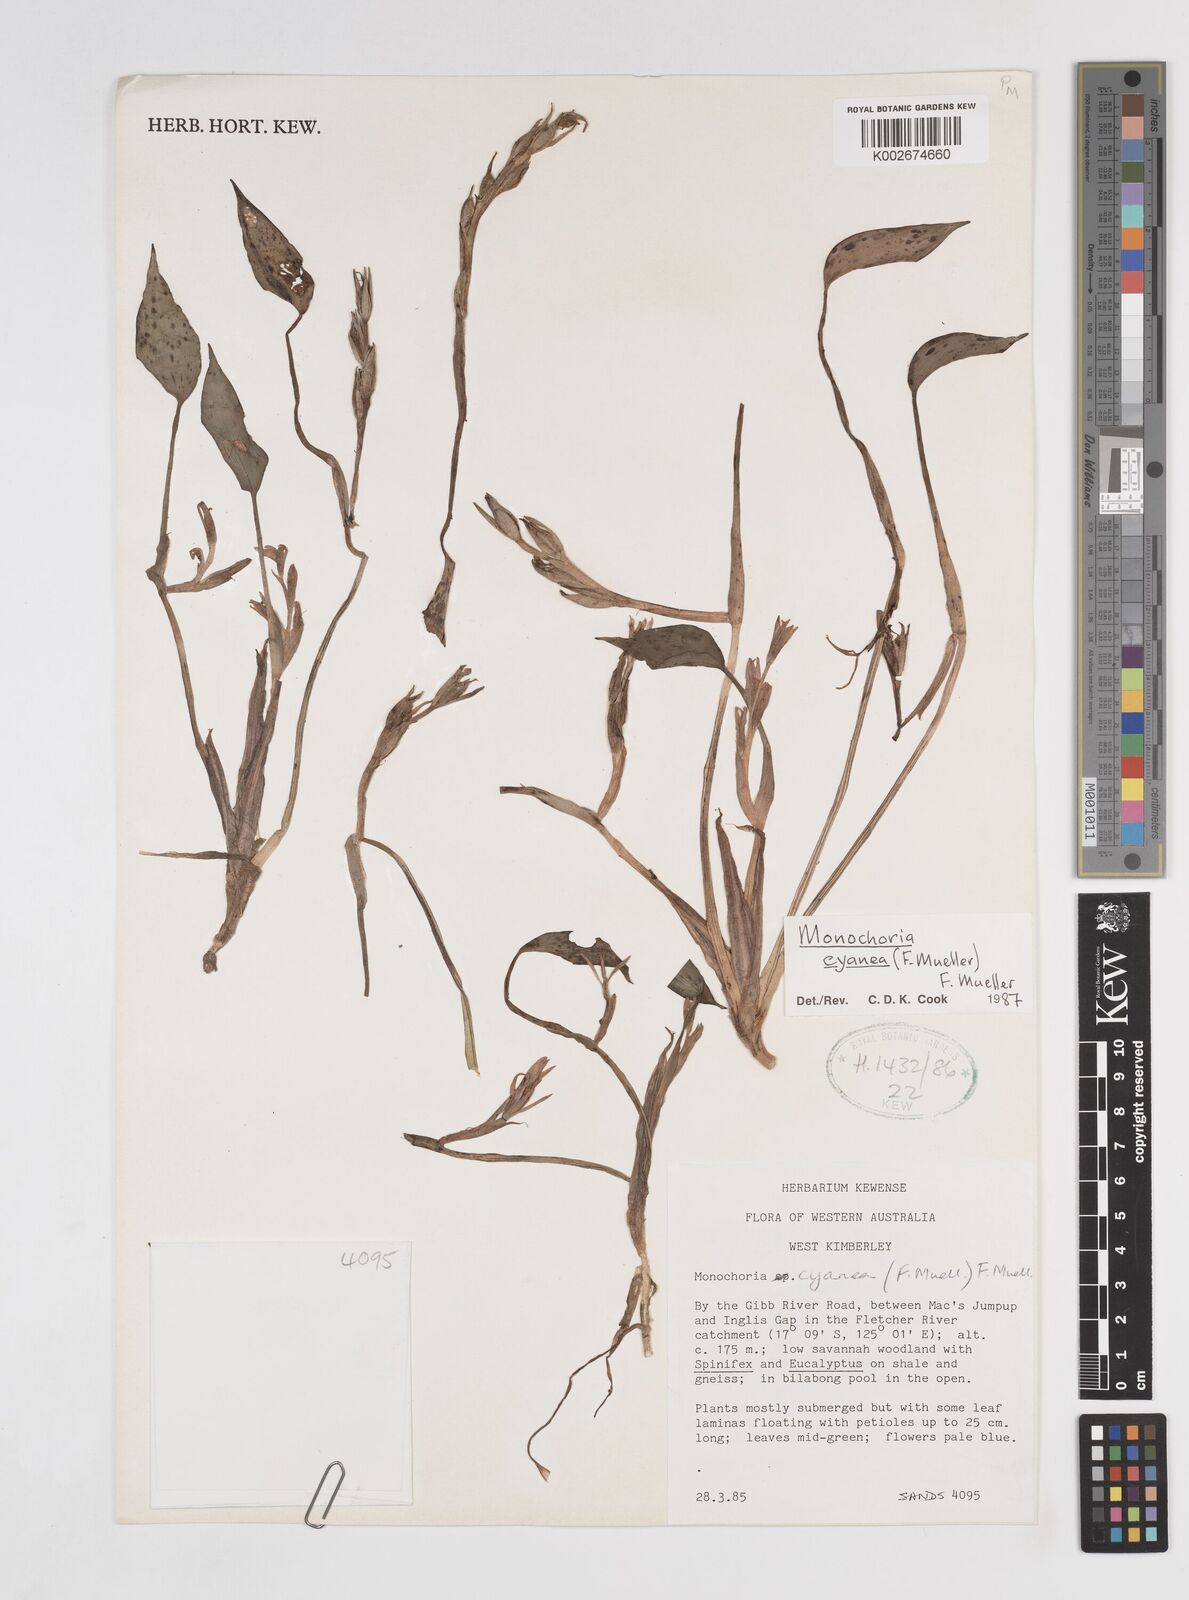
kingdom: Plantae
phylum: Tracheophyta
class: Liliopsida
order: Commelinales
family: Pontederiaceae
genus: Pontederia
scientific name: Pontederia cyanea
